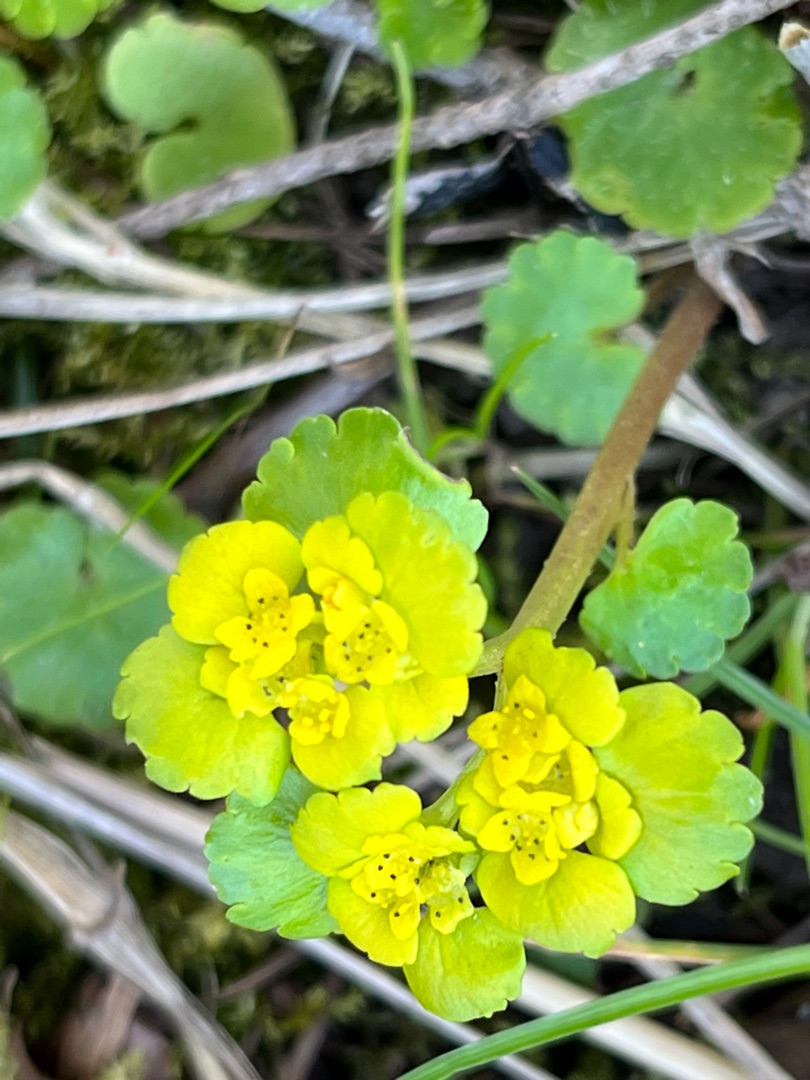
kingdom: Plantae
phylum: Tracheophyta
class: Magnoliopsida
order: Saxifragales
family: Saxifragaceae
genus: Chrysosplenium
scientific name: Chrysosplenium alternifolium
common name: Almindelig milturt
